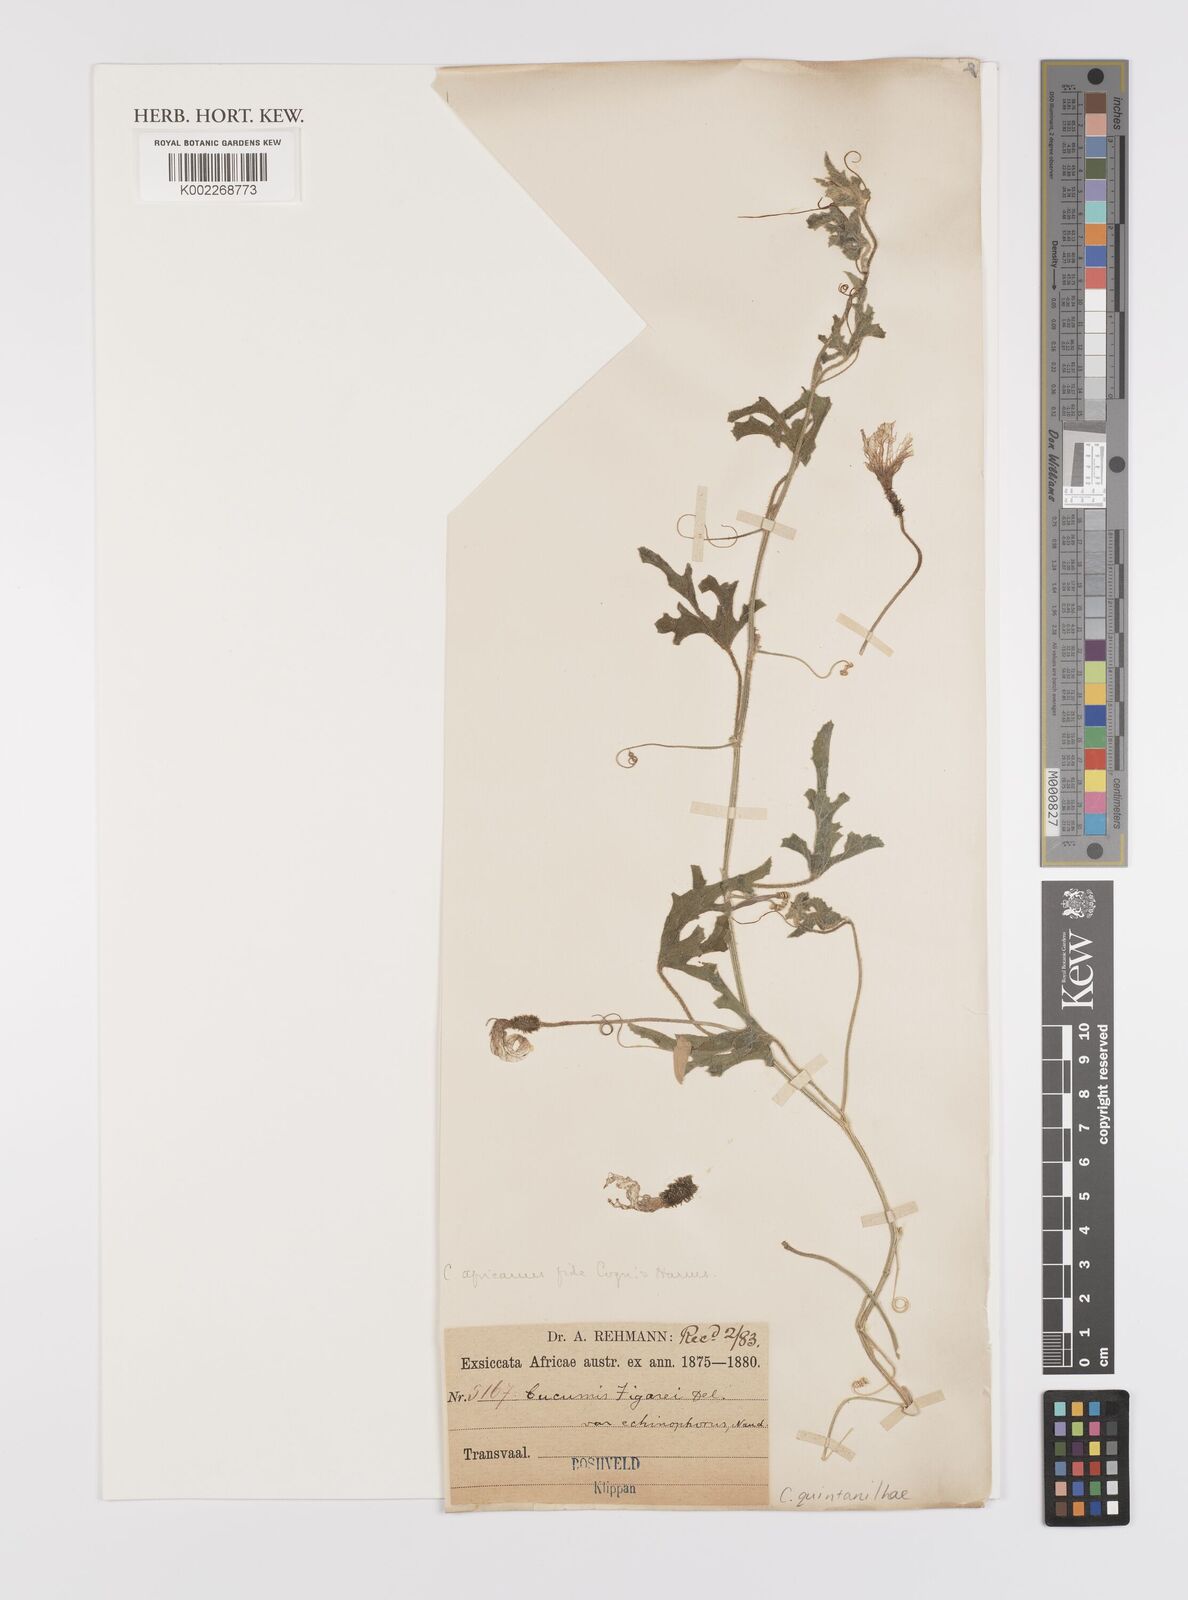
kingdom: Plantae
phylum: Tracheophyta
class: Magnoliopsida
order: Cucurbitales
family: Cucurbitaceae
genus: Cucumis
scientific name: Cucumis quintanilhae
